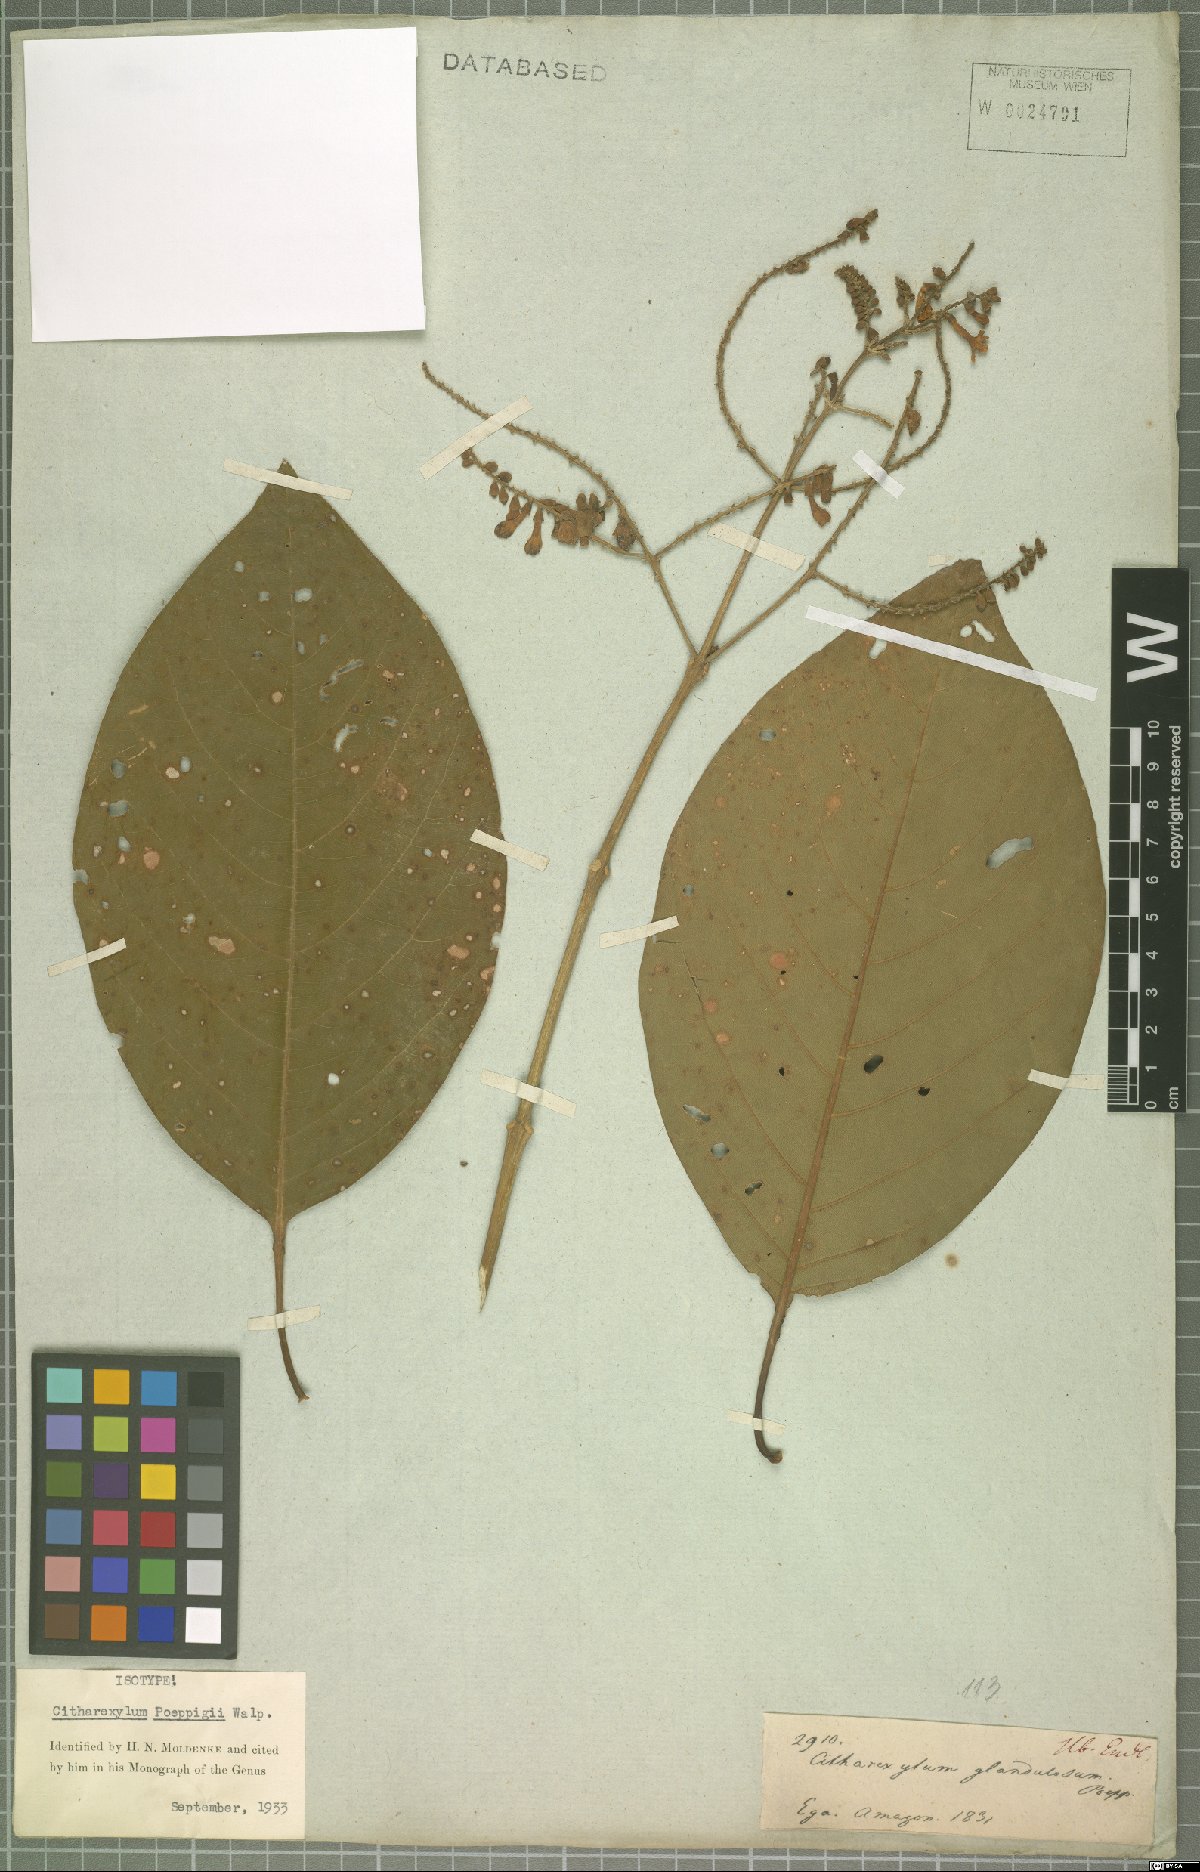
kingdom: Plantae
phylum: Tracheophyta
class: Magnoliopsida
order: Lamiales
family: Verbenaceae
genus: Citharexylum
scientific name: Citharexylum poeppigii
